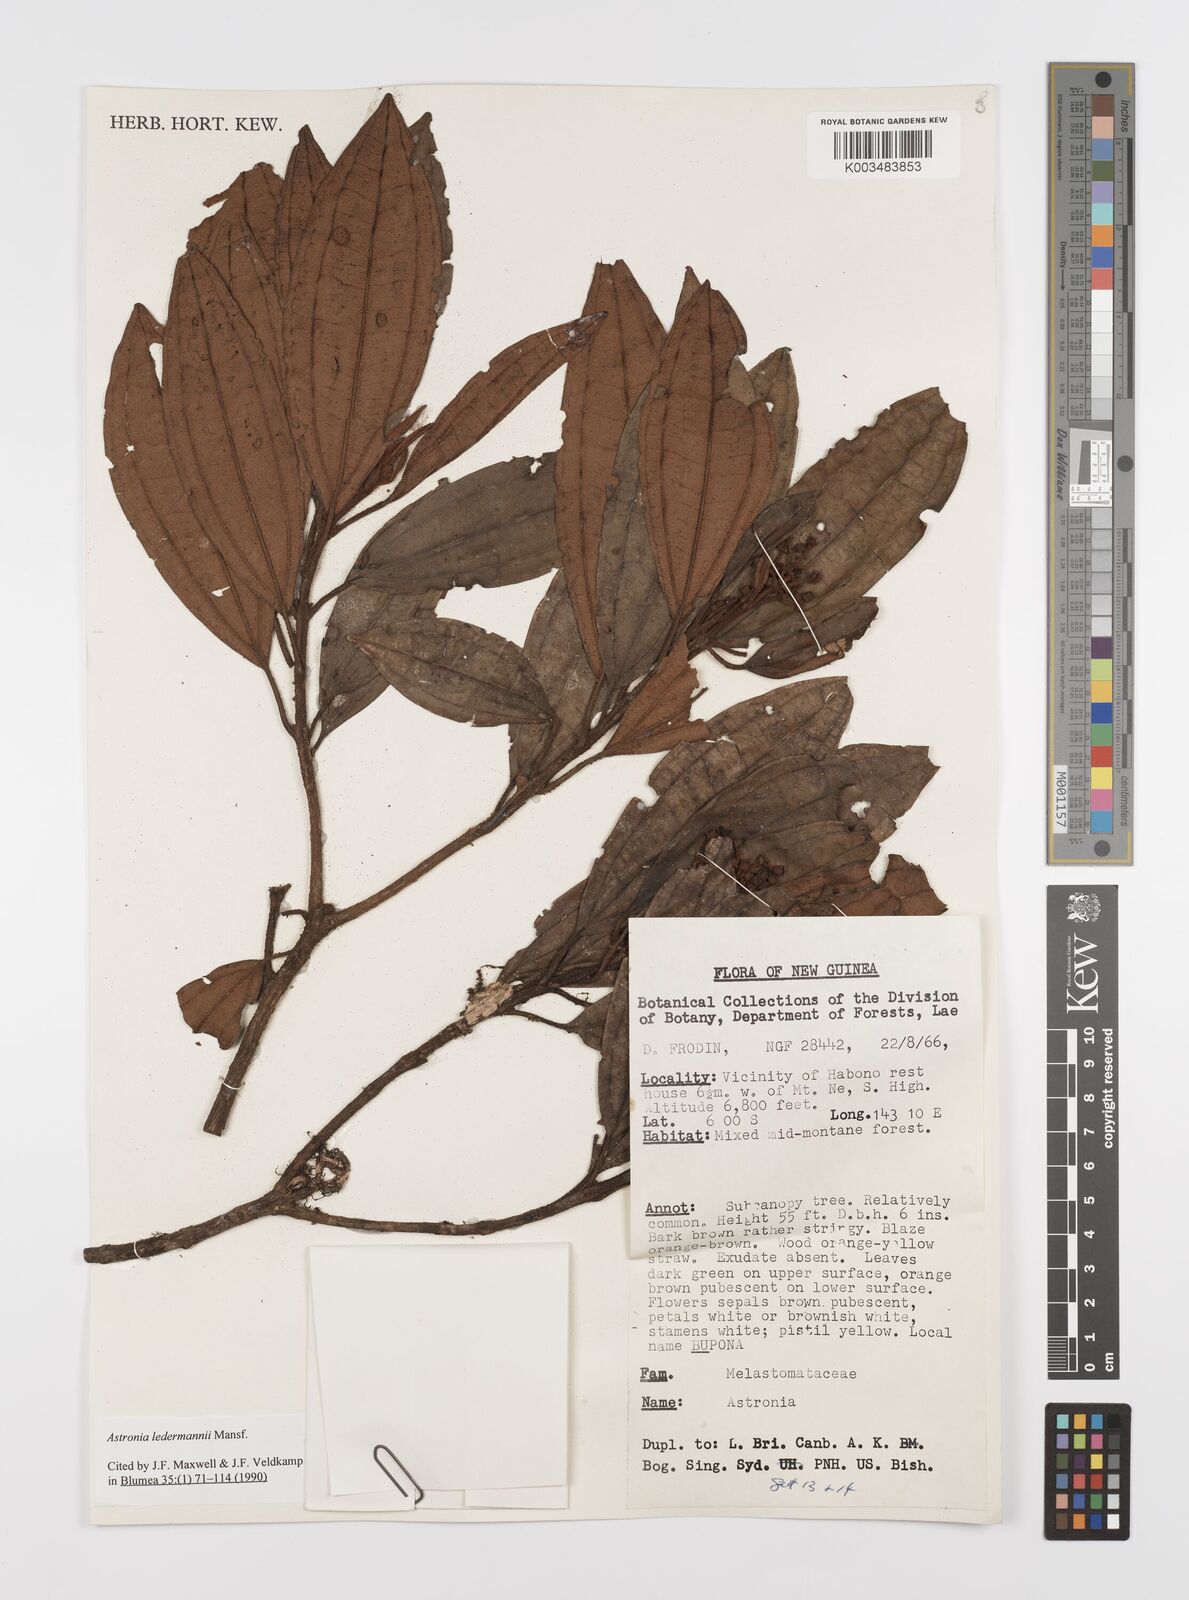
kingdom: Plantae
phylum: Tracheophyta
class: Magnoliopsida
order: Myrtales
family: Melastomataceae
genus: Astronia
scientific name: Astronia ledermannii
